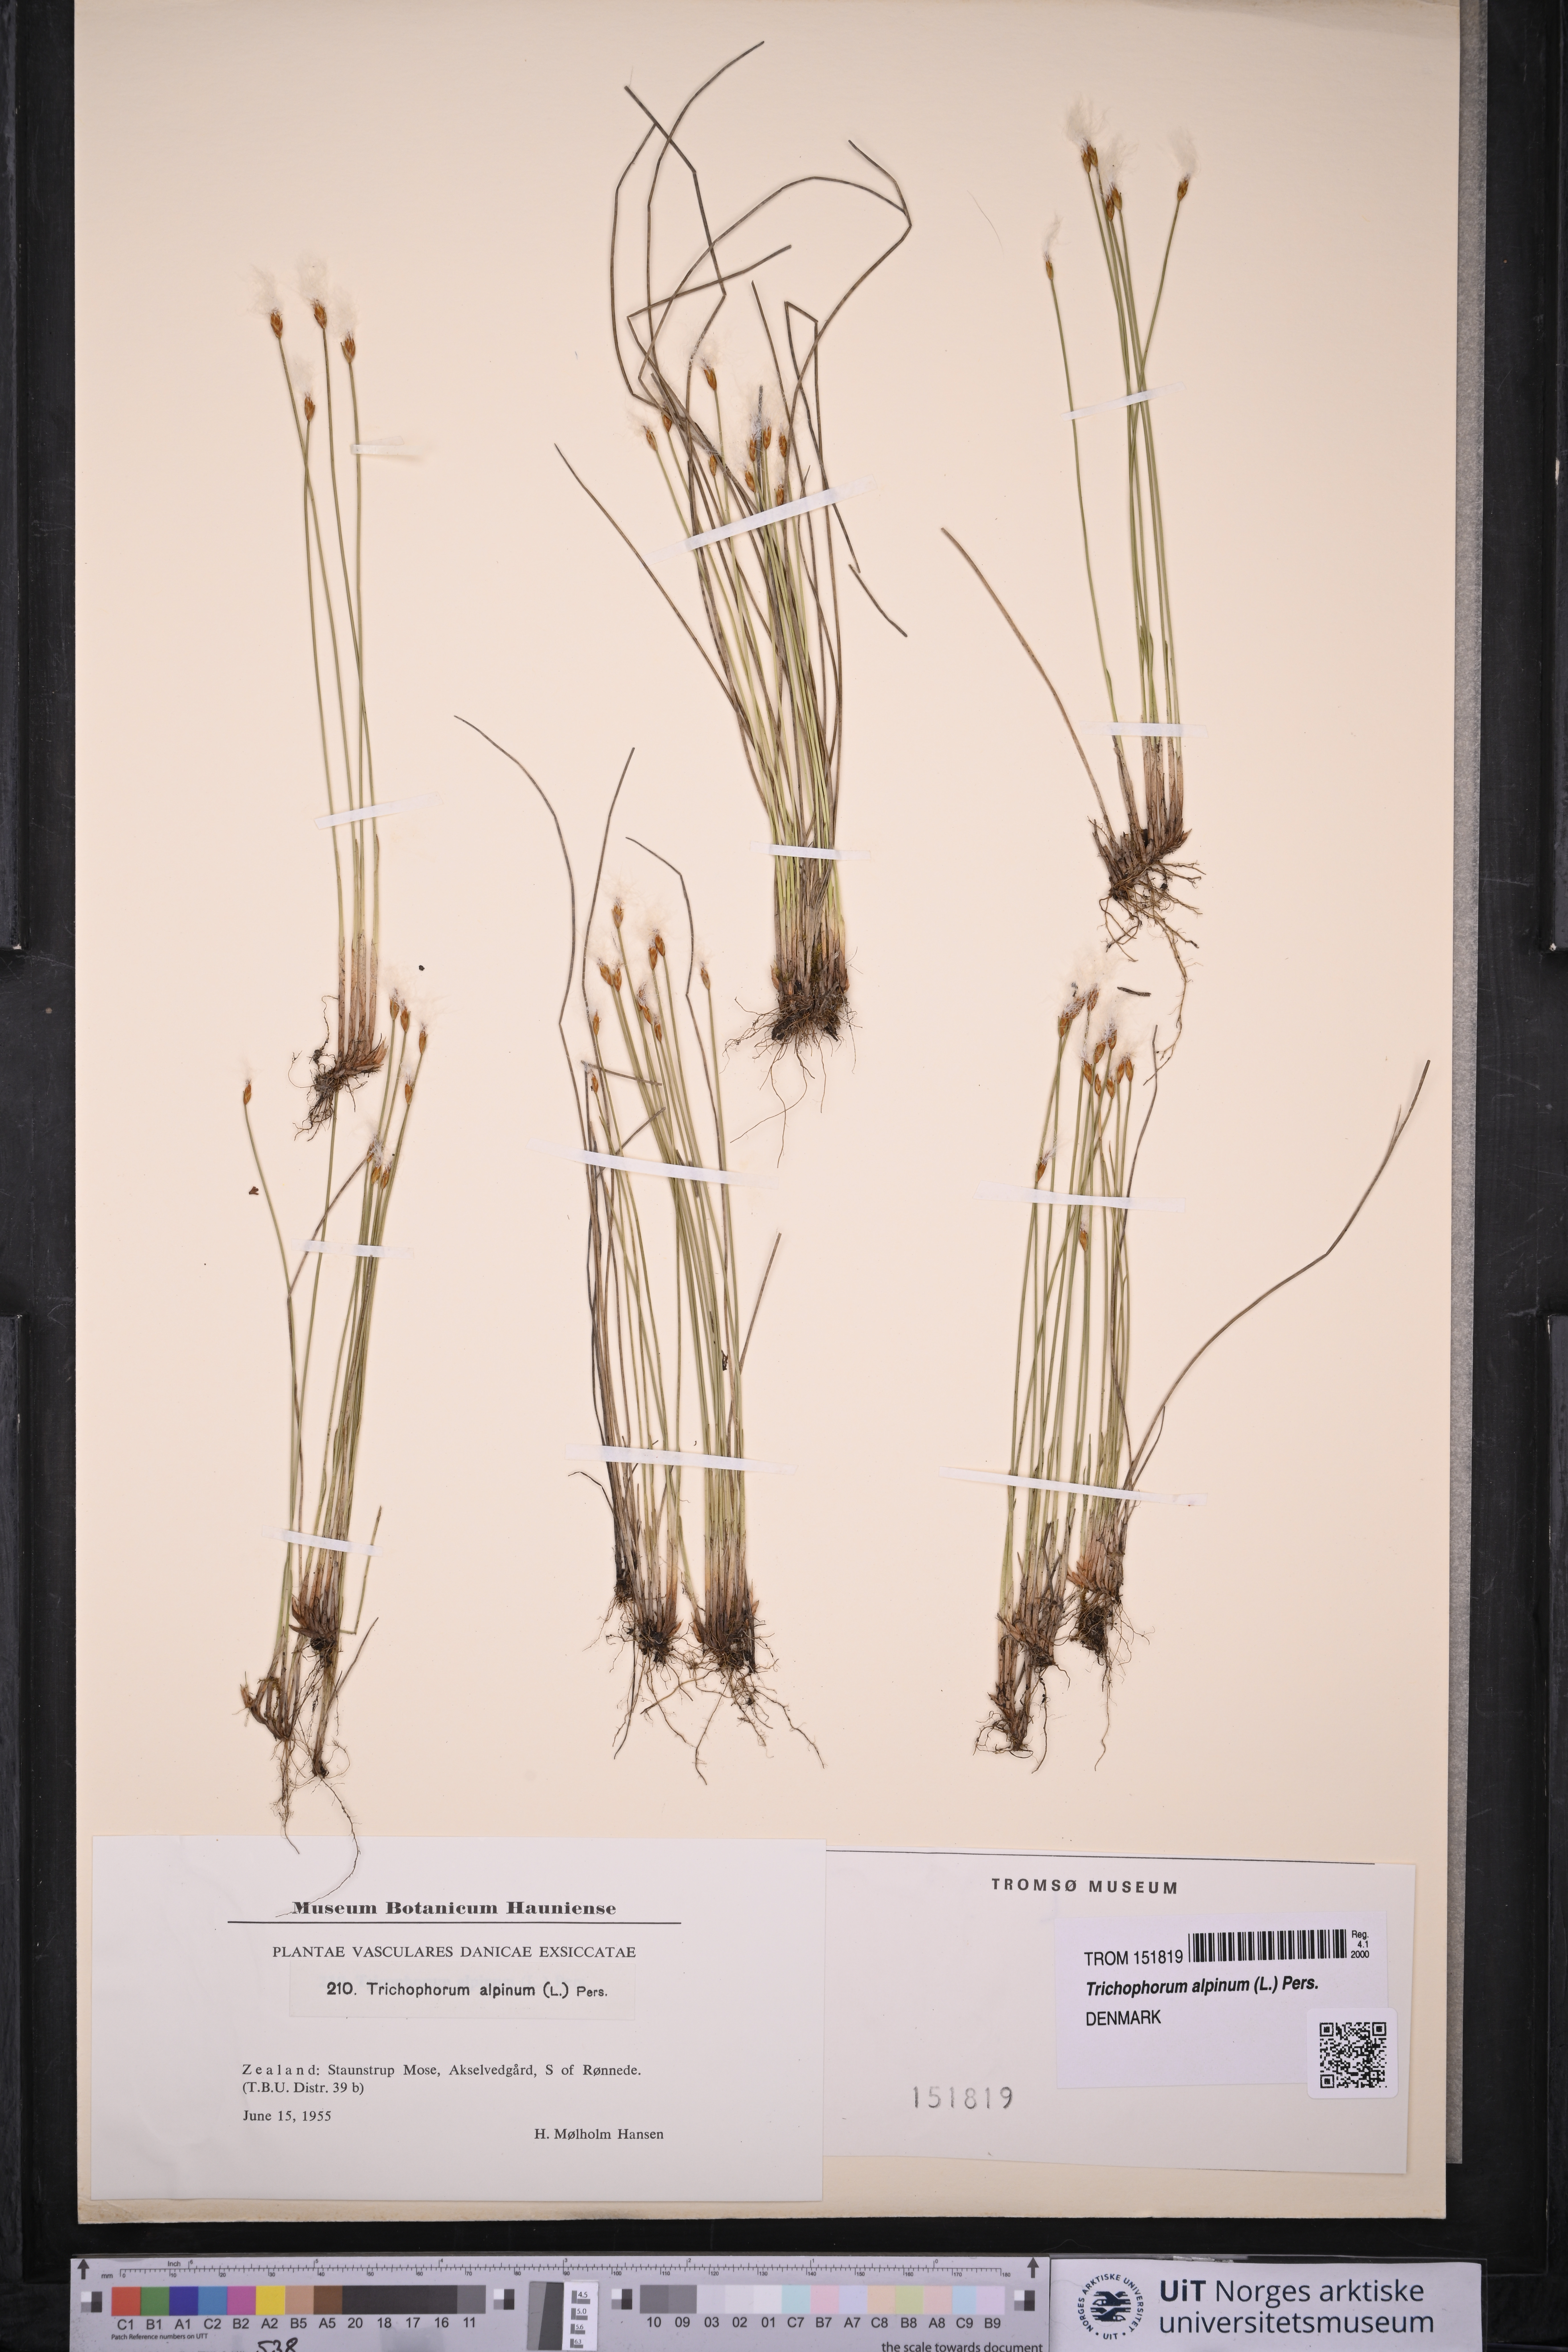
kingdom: Plantae
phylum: Tracheophyta
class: Liliopsida
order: Poales
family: Cyperaceae
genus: Trichophorum
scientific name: Trichophorum alpinum
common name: Alpine bulrush
